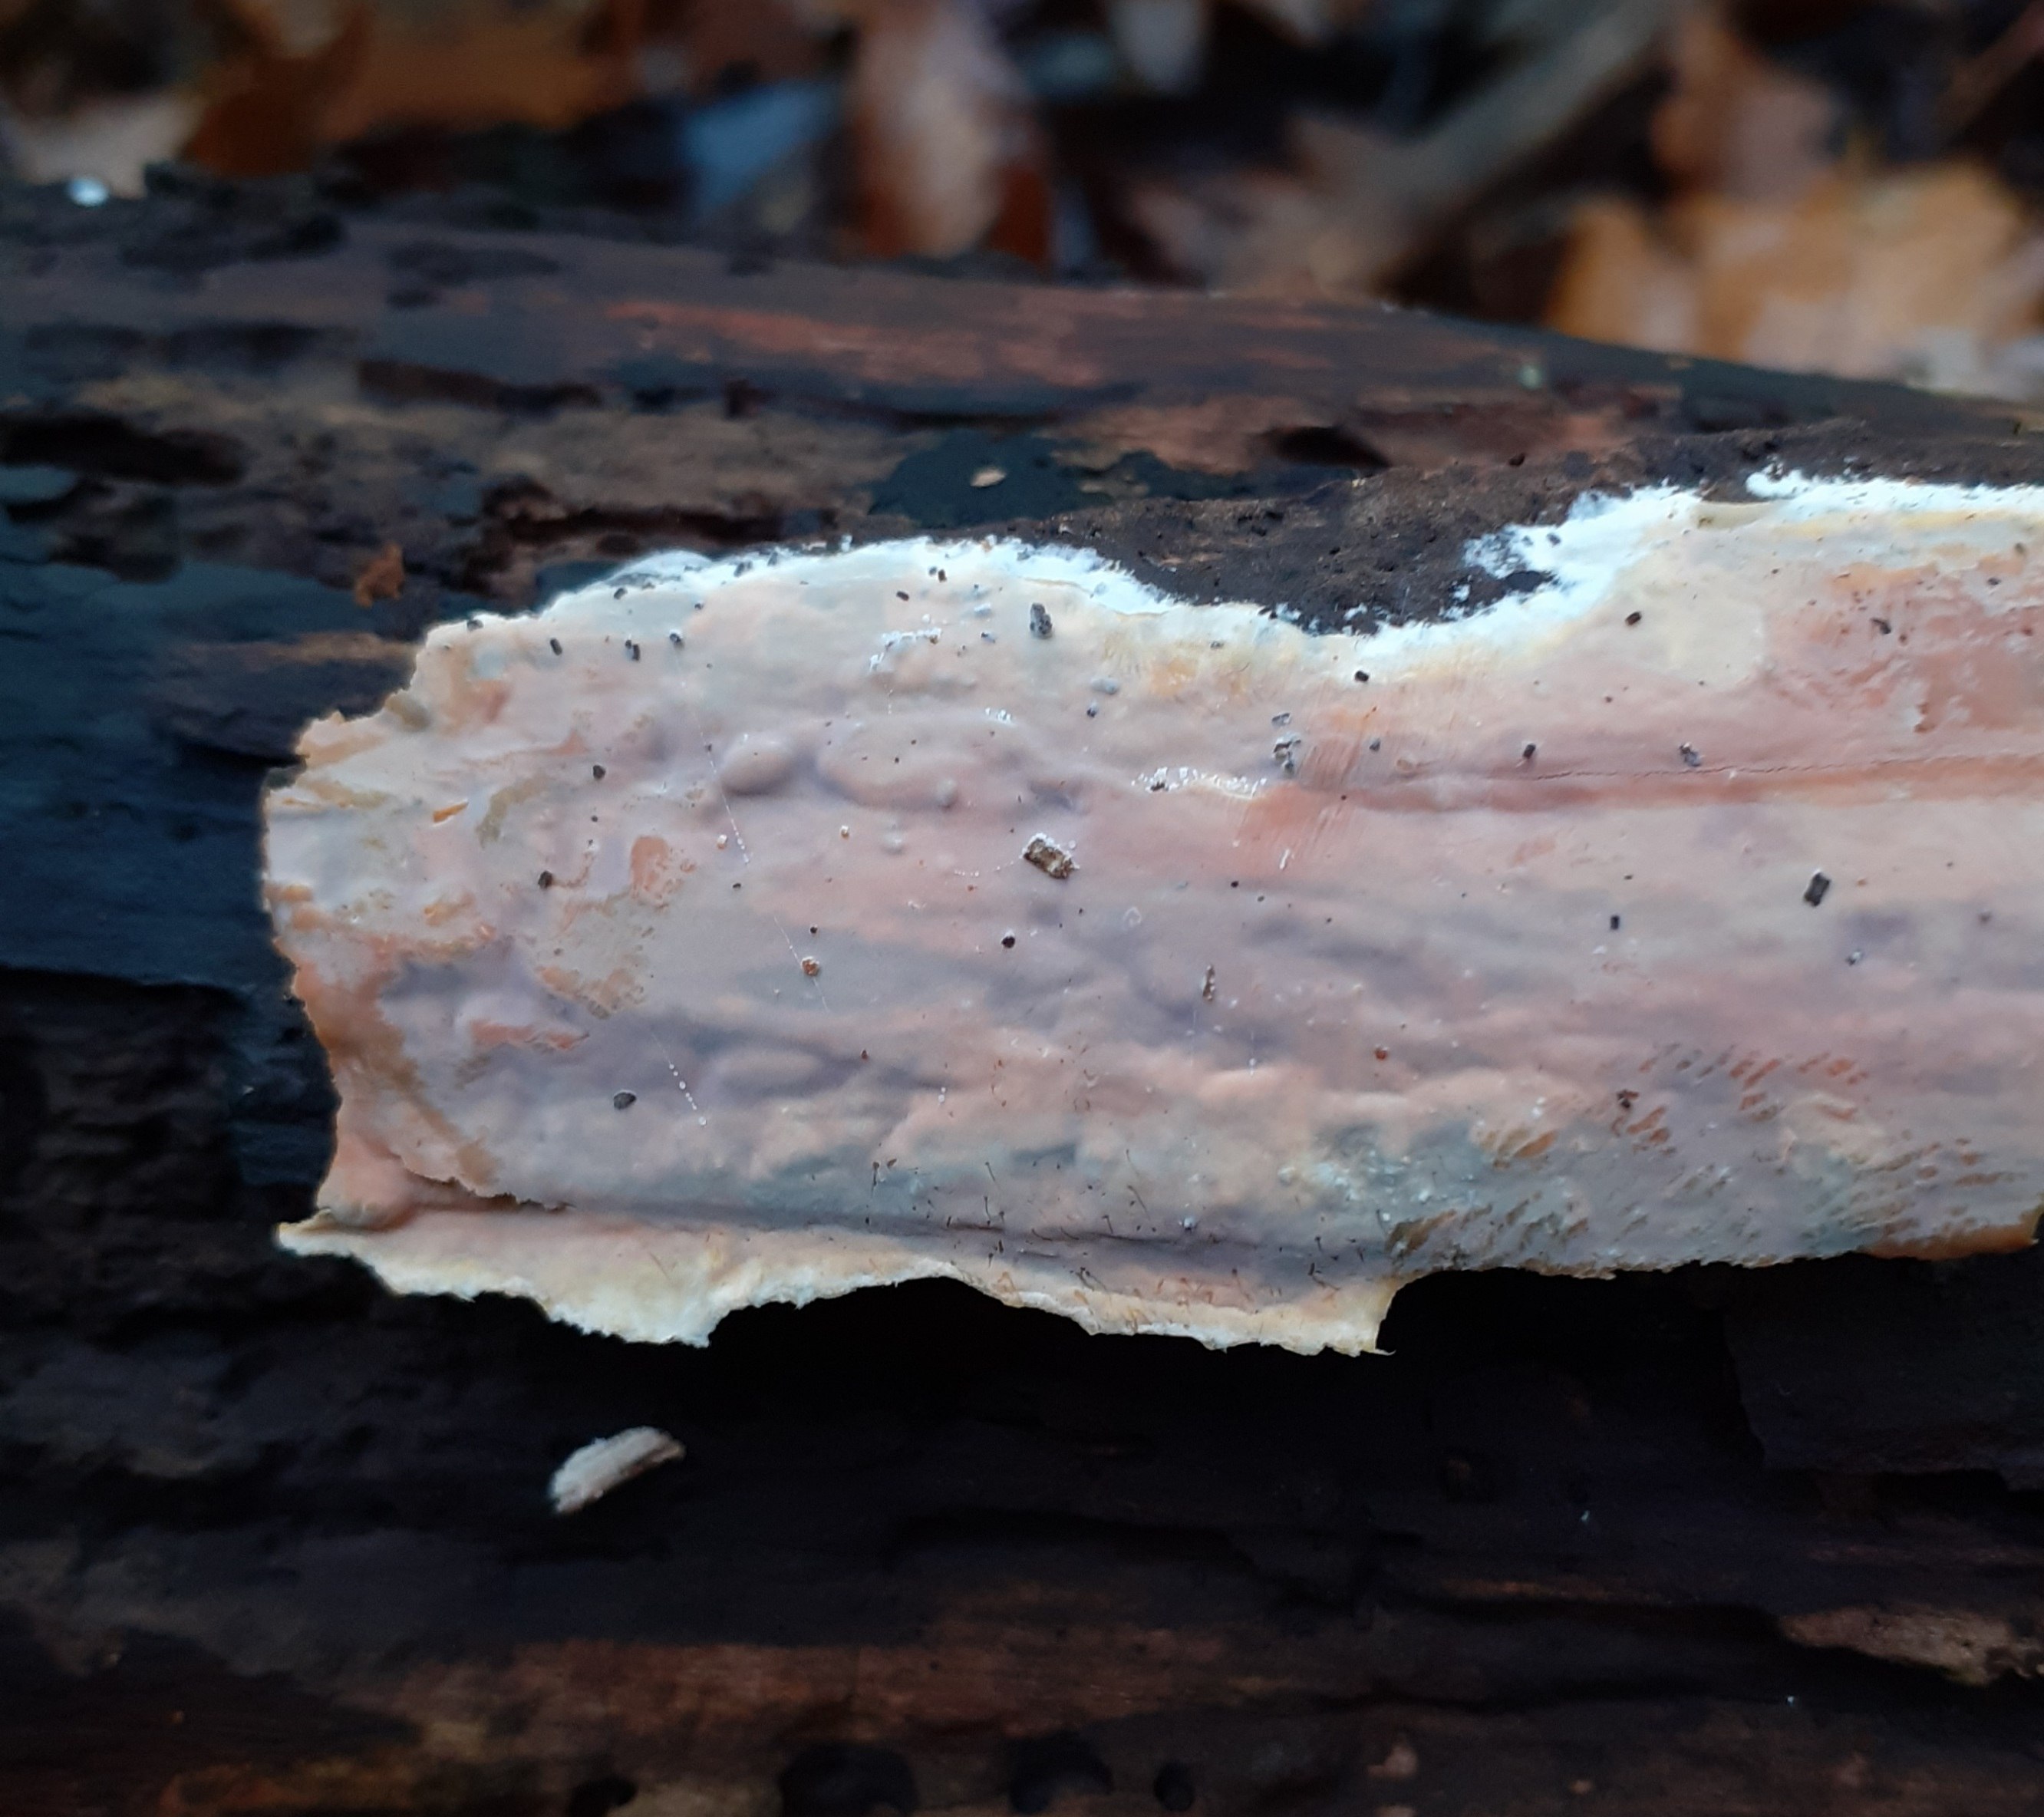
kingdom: Fungi
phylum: Basidiomycota
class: Agaricomycetes
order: Russulales
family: Peniophoraceae
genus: Scytinostroma
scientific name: Scytinostroma hemidichophyticum
